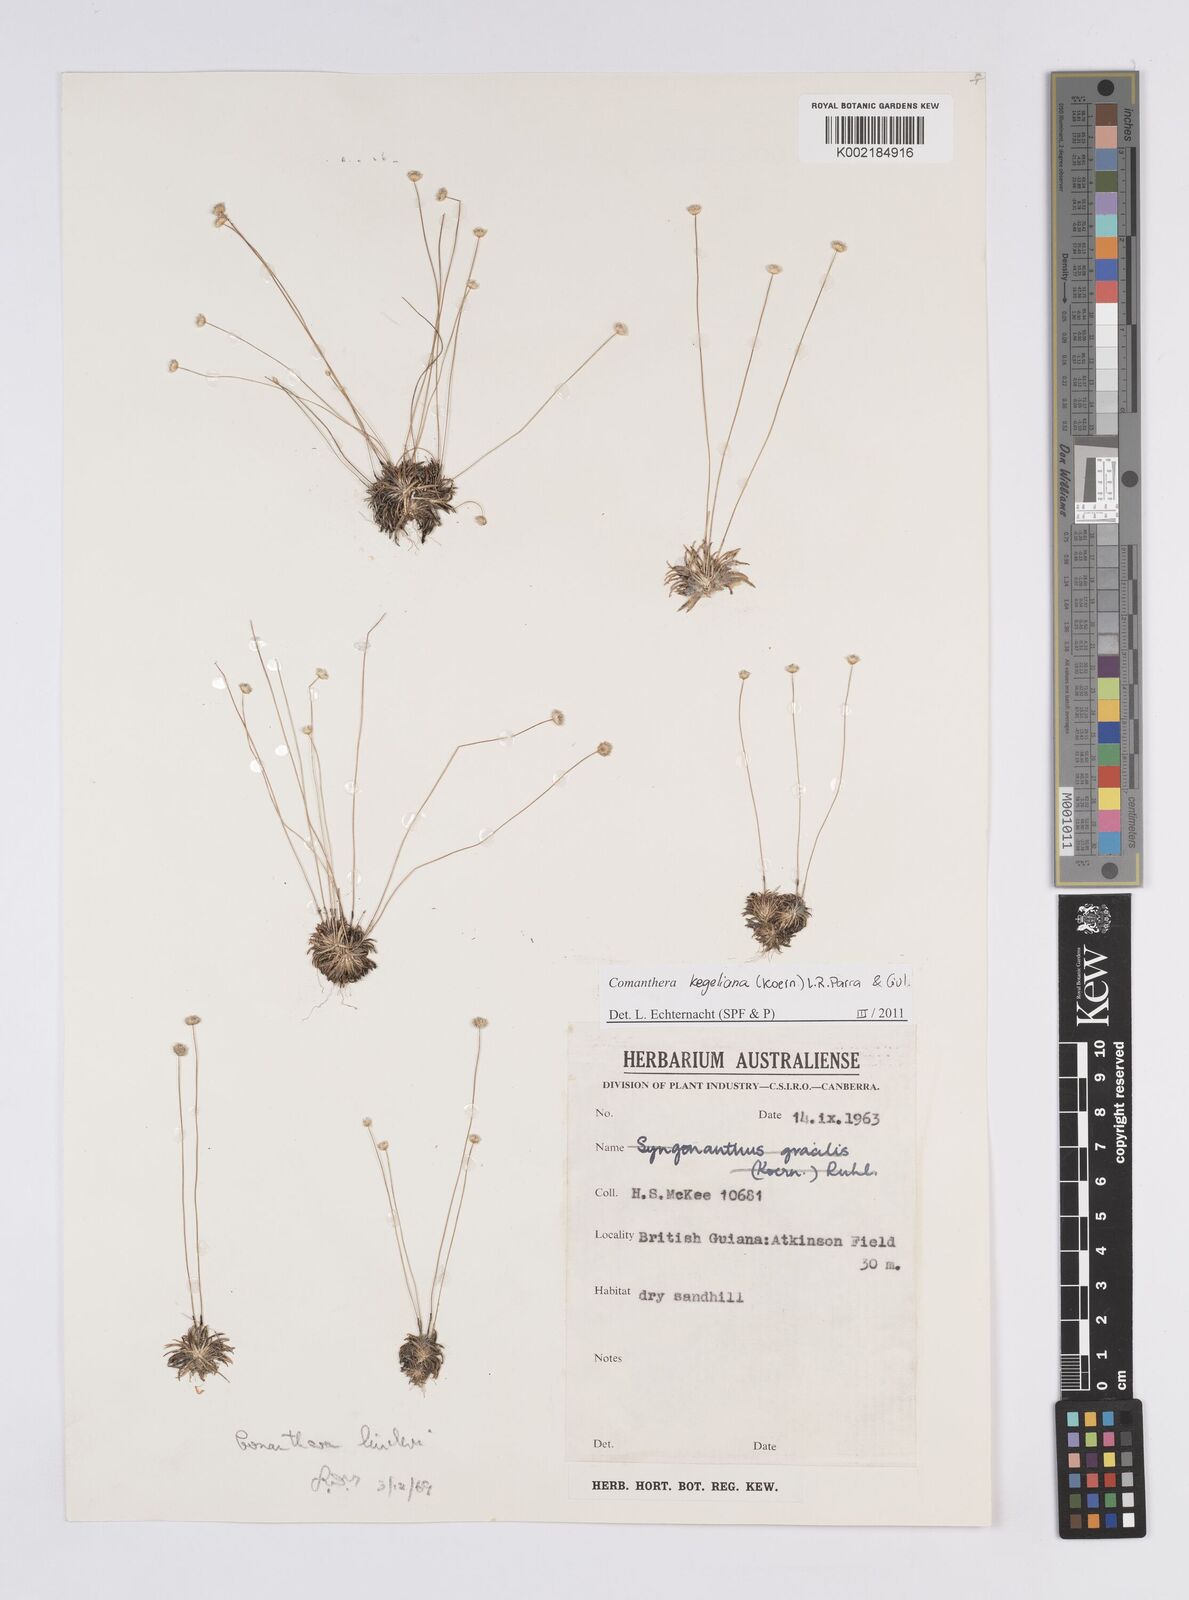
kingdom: Plantae
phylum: Tracheophyta
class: Liliopsida
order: Poales
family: Eriocaulaceae
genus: Comanthera
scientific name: Comanthera kegeliana
